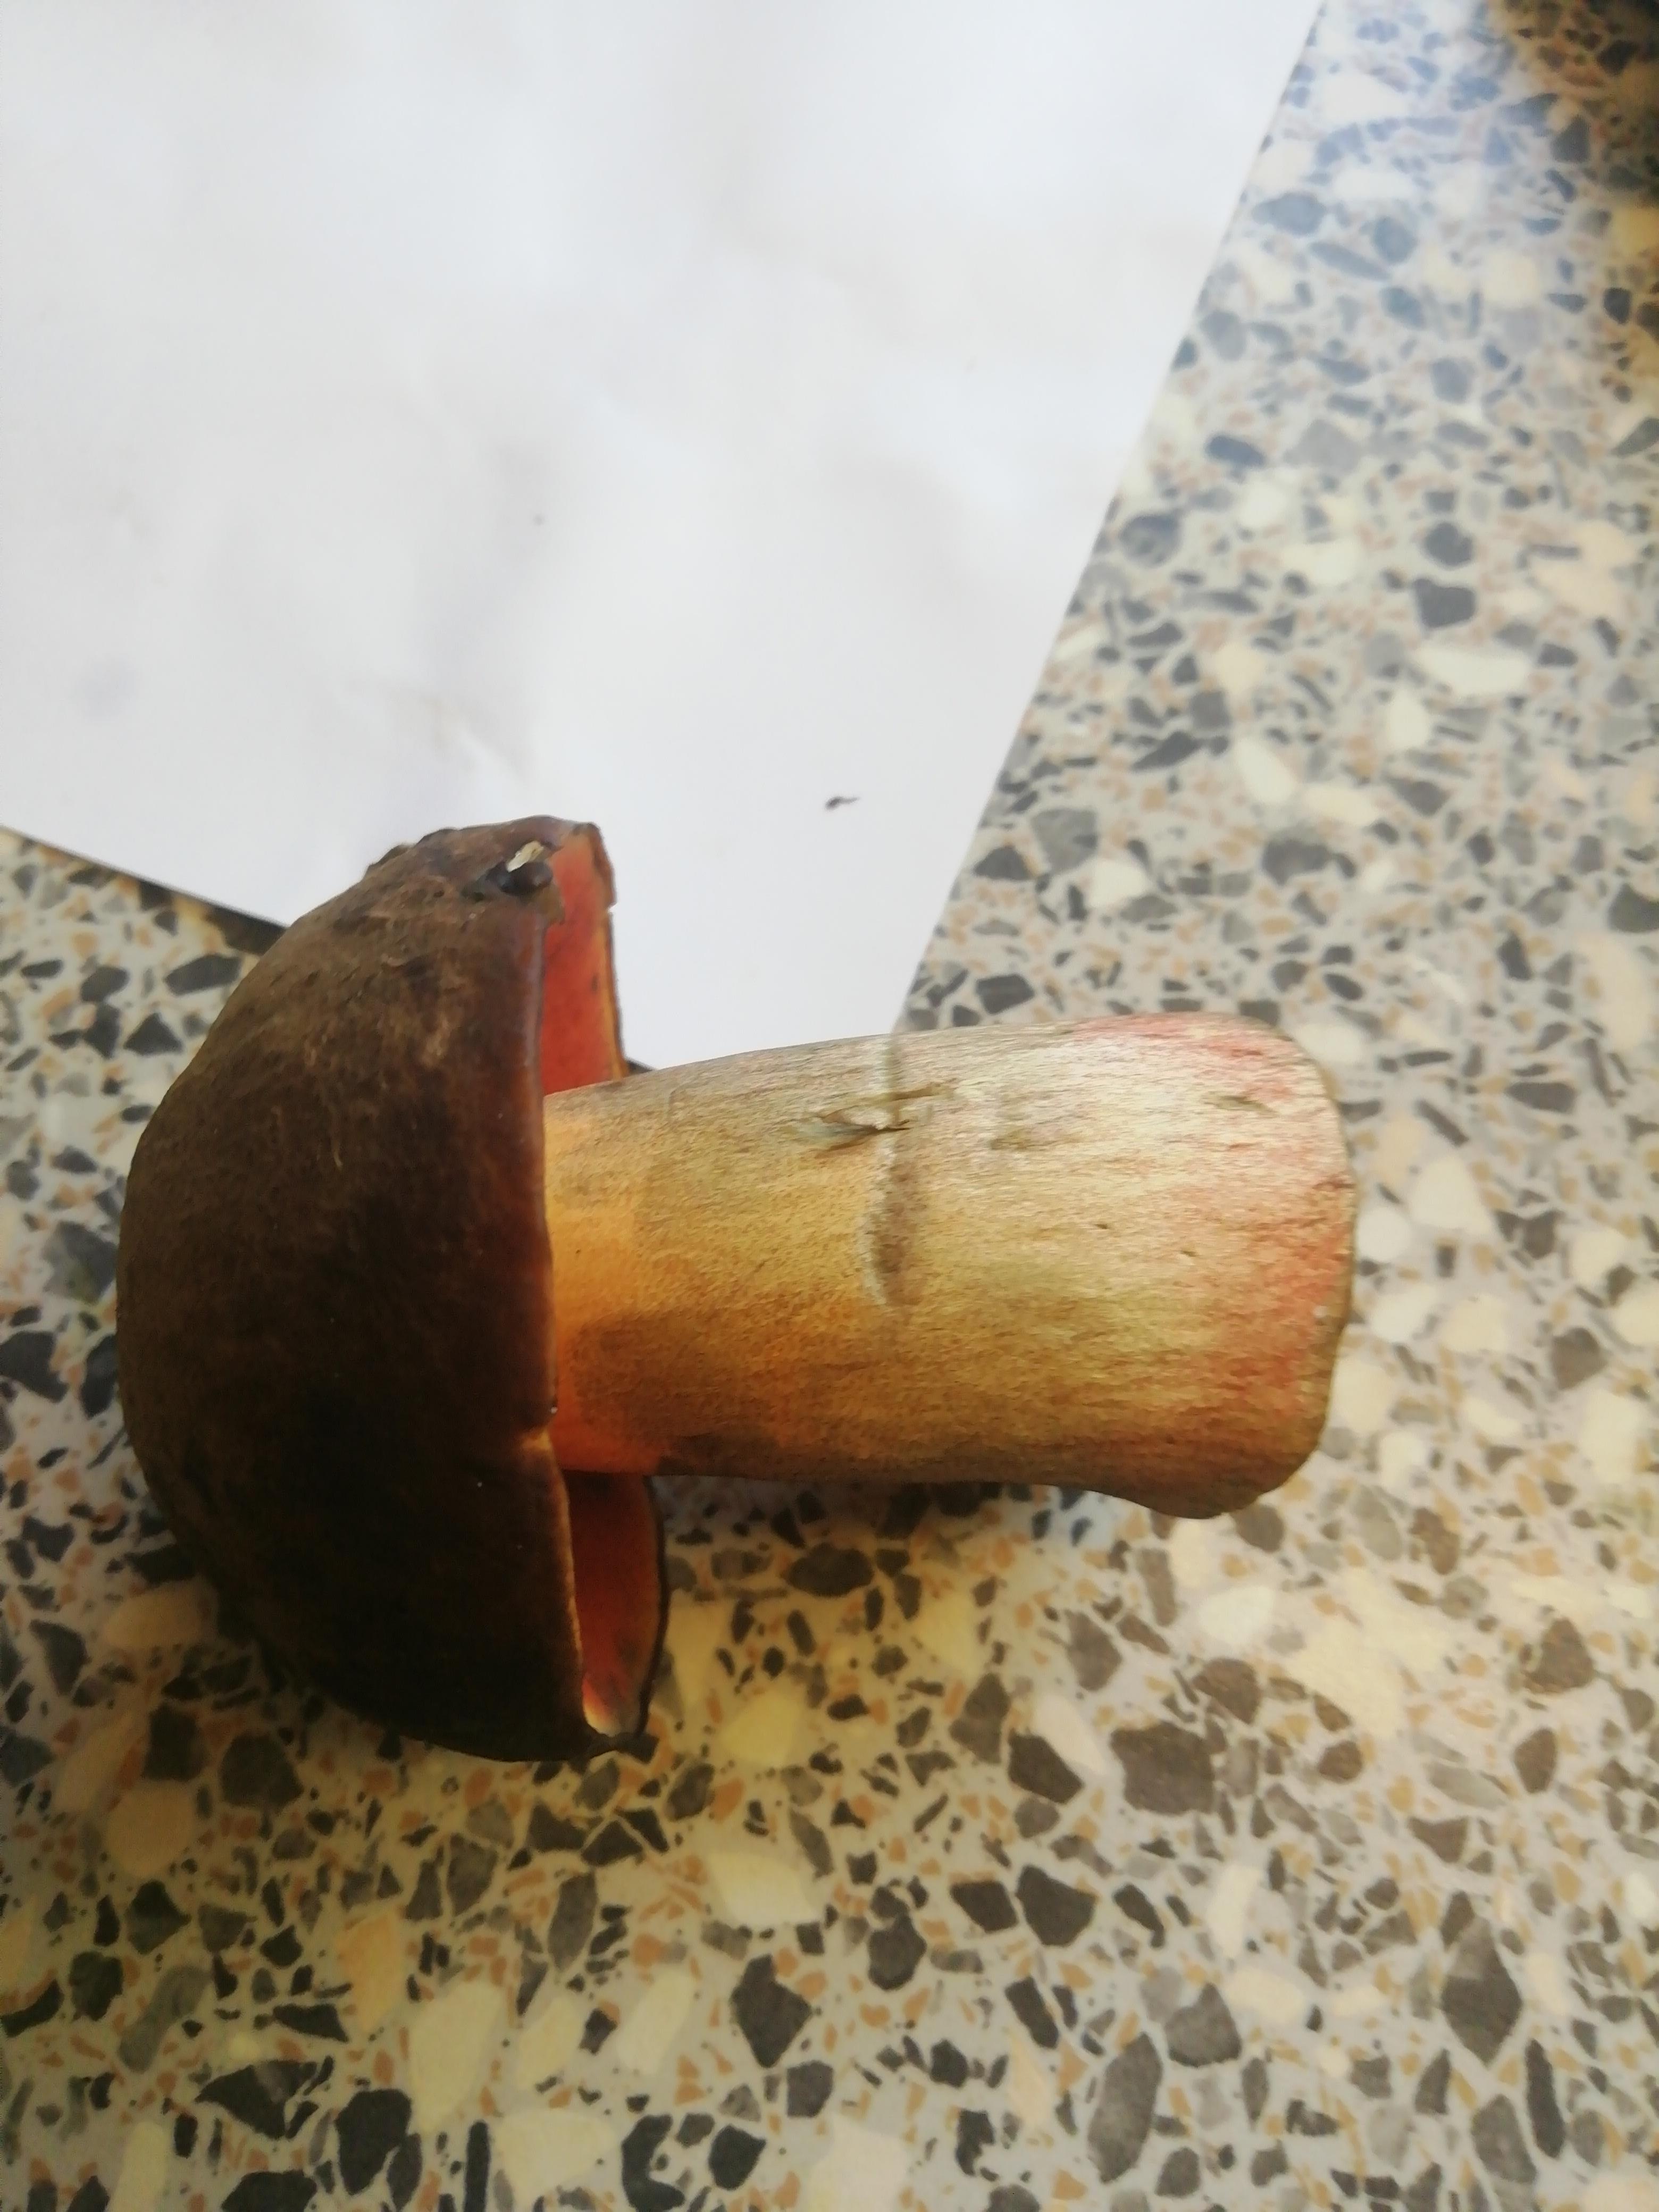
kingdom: Fungi
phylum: Basidiomycota
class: Agaricomycetes
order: Boletales
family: Boletaceae
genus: Neoboletus
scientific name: Neoboletus erythropus
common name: punktstokket indigorørhat
